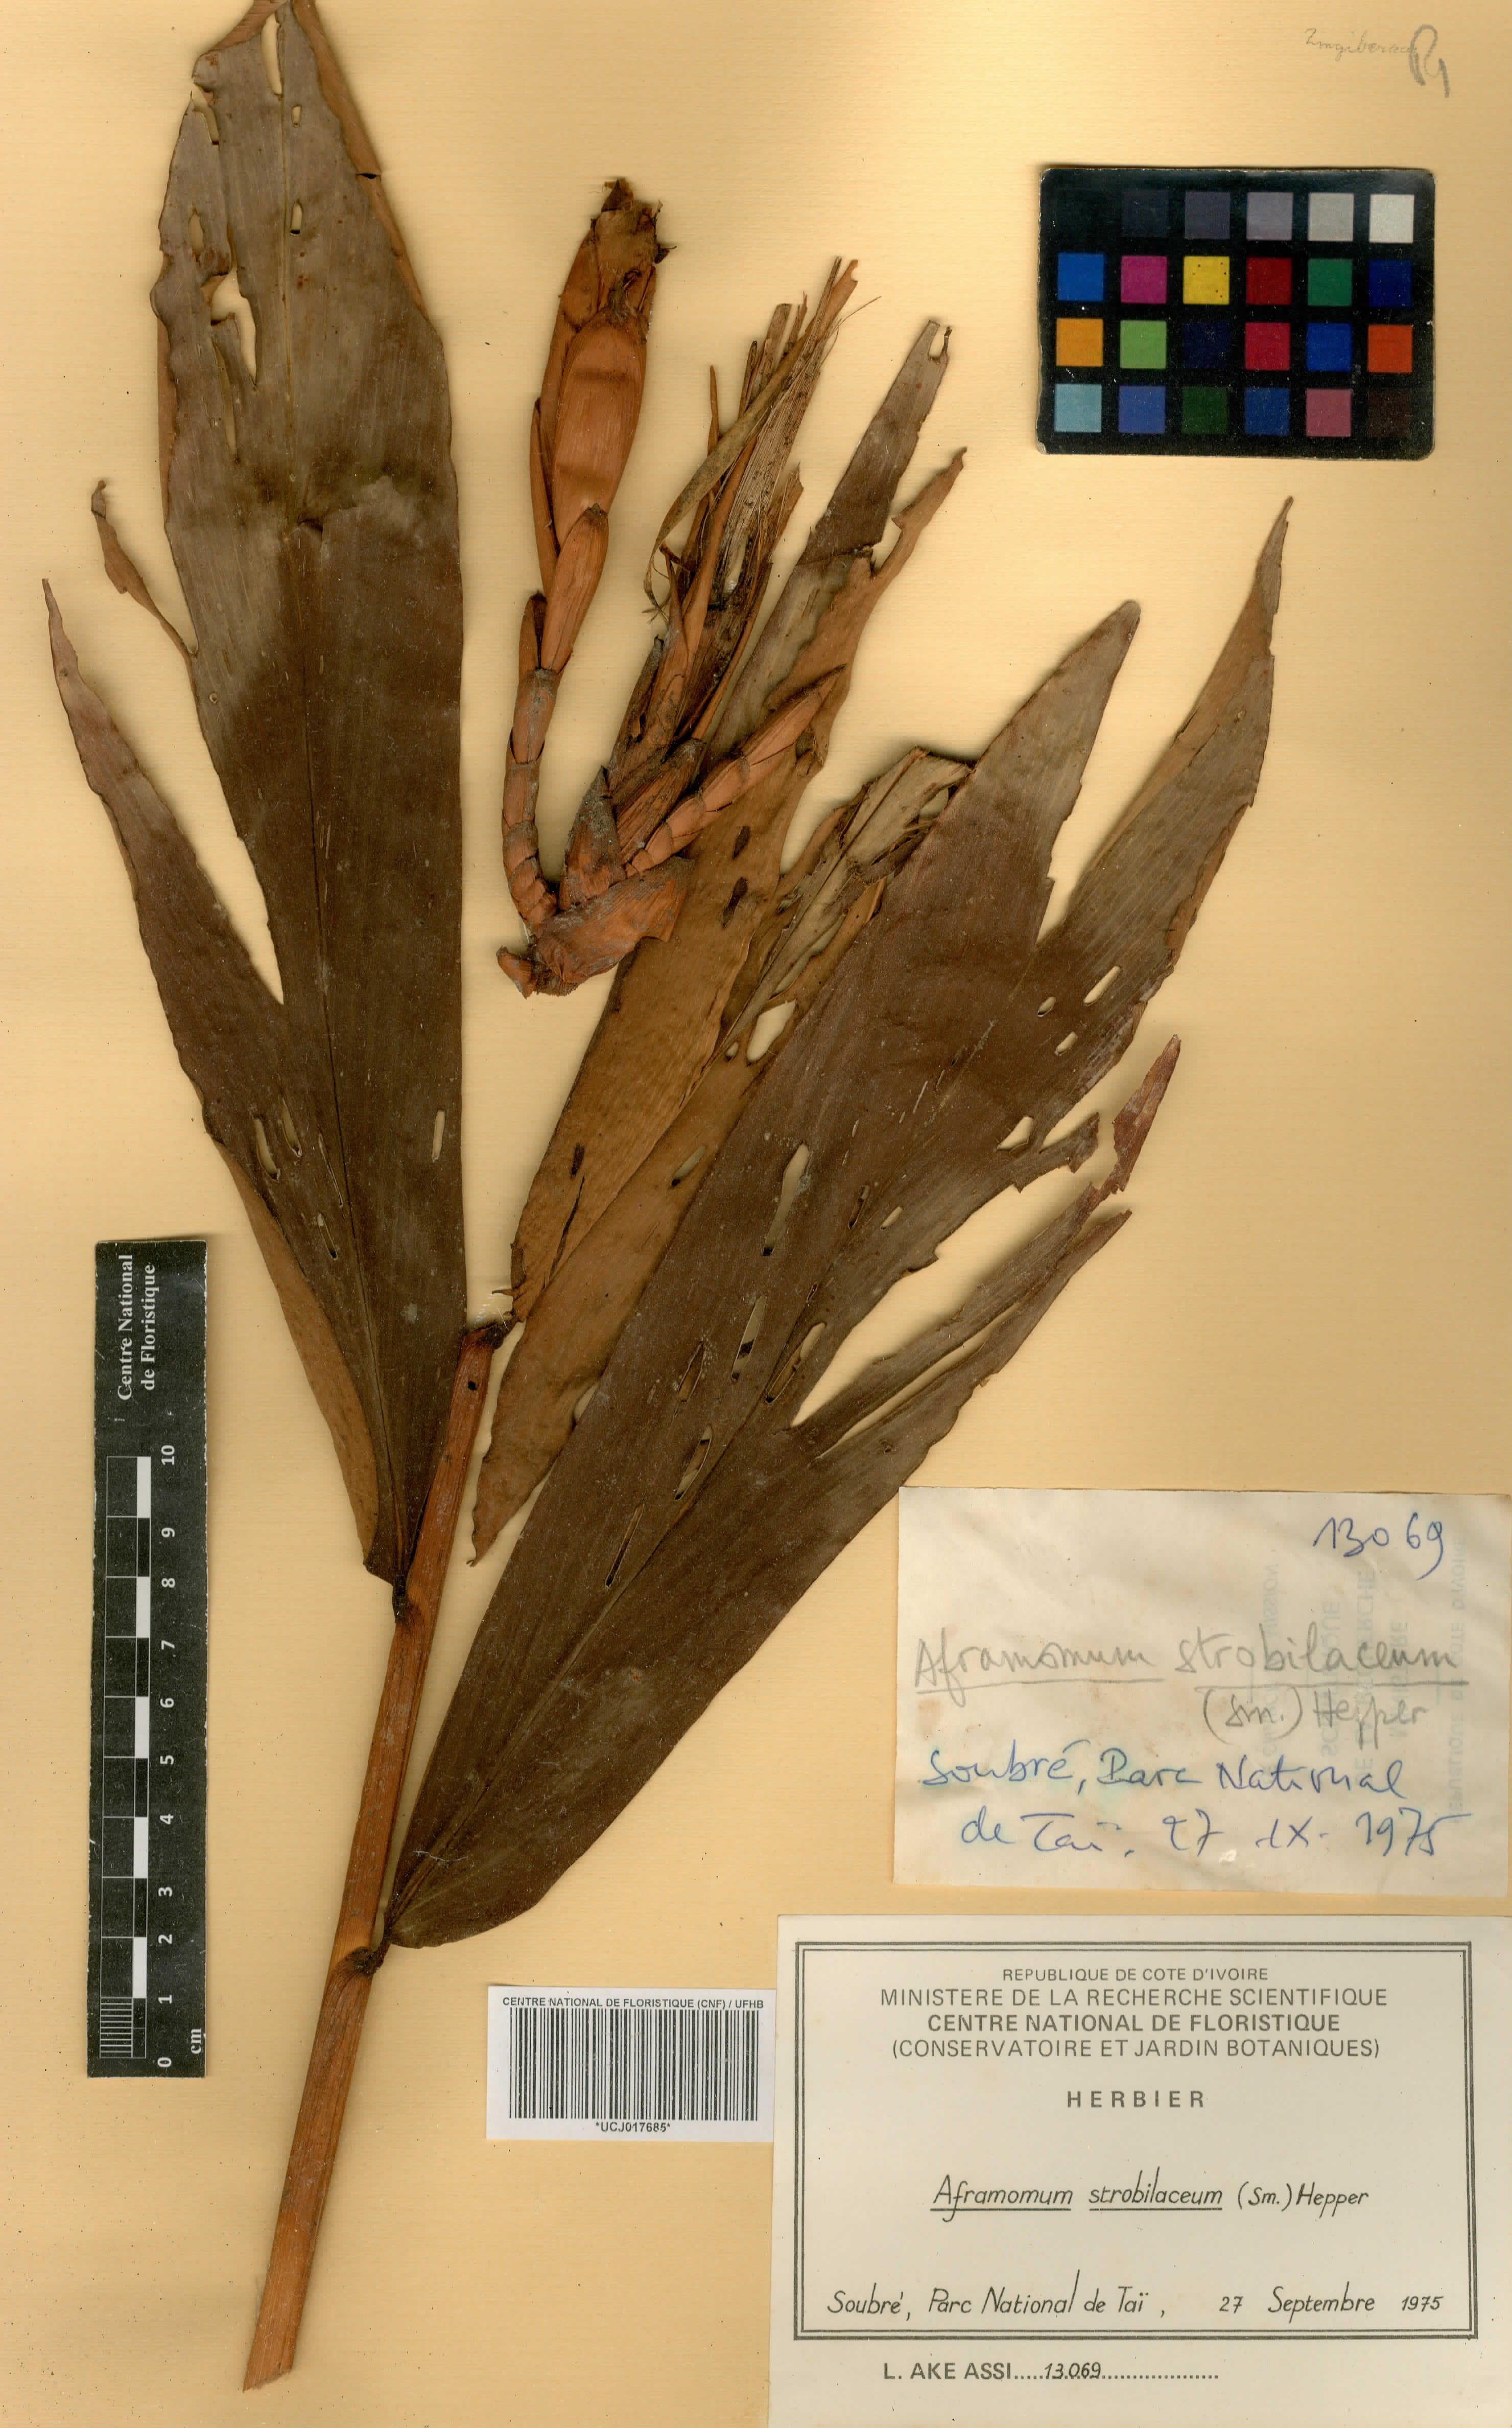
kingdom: Plantae
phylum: Tracheophyta
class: Liliopsida
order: Zingiberales
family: Zingiberaceae
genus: Aframomum
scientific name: Aframomum strobilaceum
